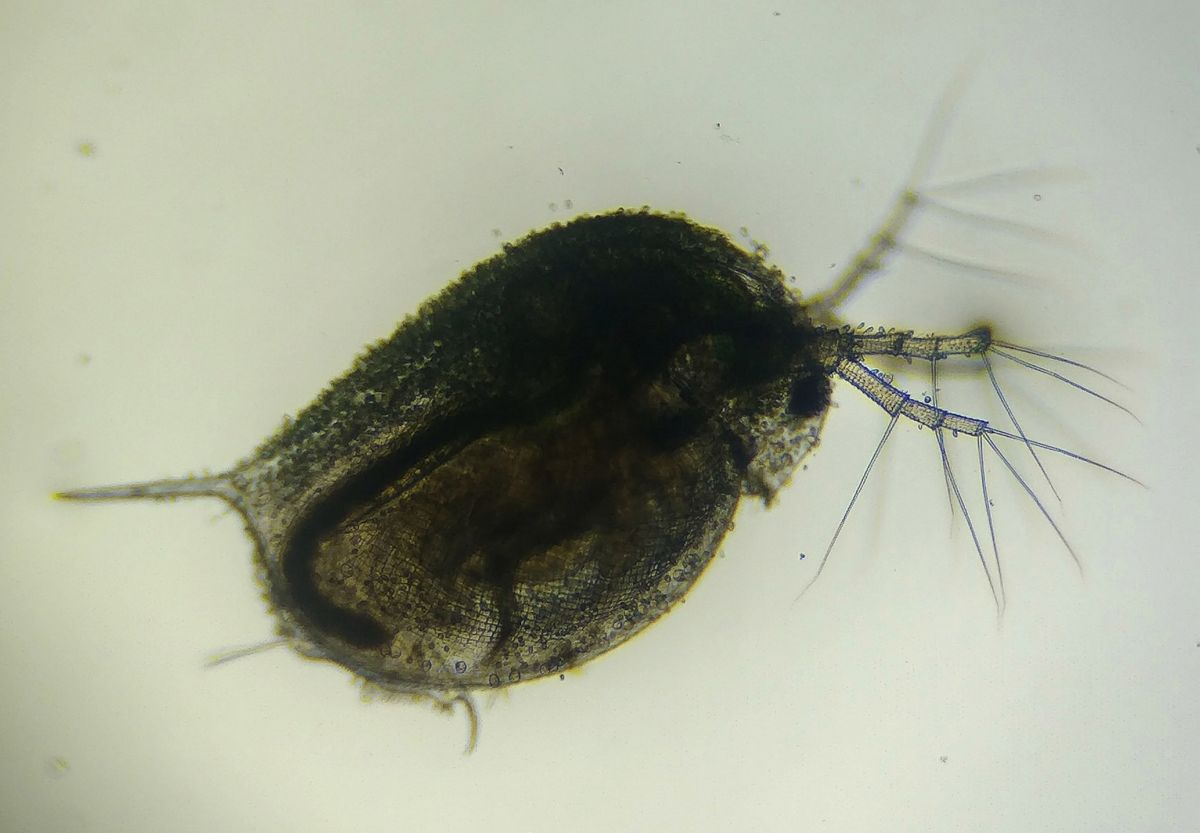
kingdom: Animalia
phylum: Arthropoda
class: Branchiopoda
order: Diplostraca
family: Daphniidae
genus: Daphnia
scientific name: Daphnia magna
